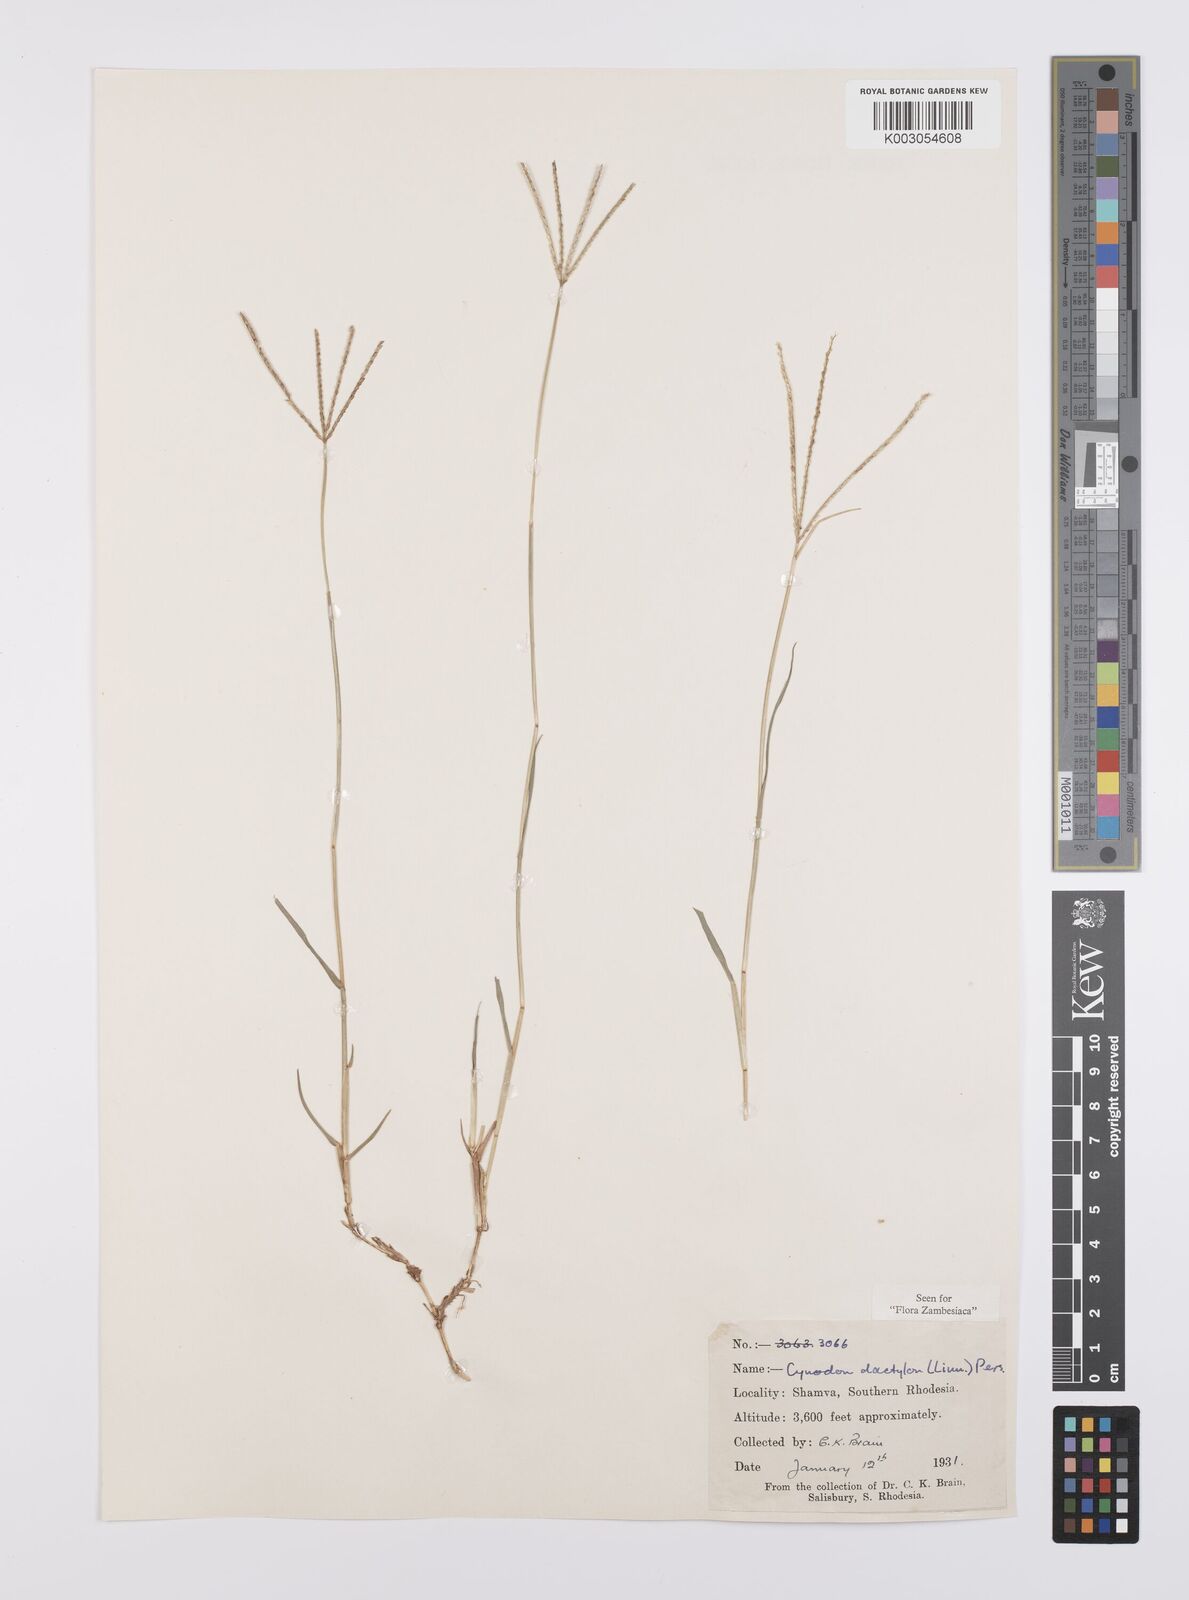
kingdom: Plantae
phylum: Tracheophyta
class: Liliopsida
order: Poales
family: Poaceae
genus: Cynodon
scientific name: Cynodon dactylon
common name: Bermuda grass
